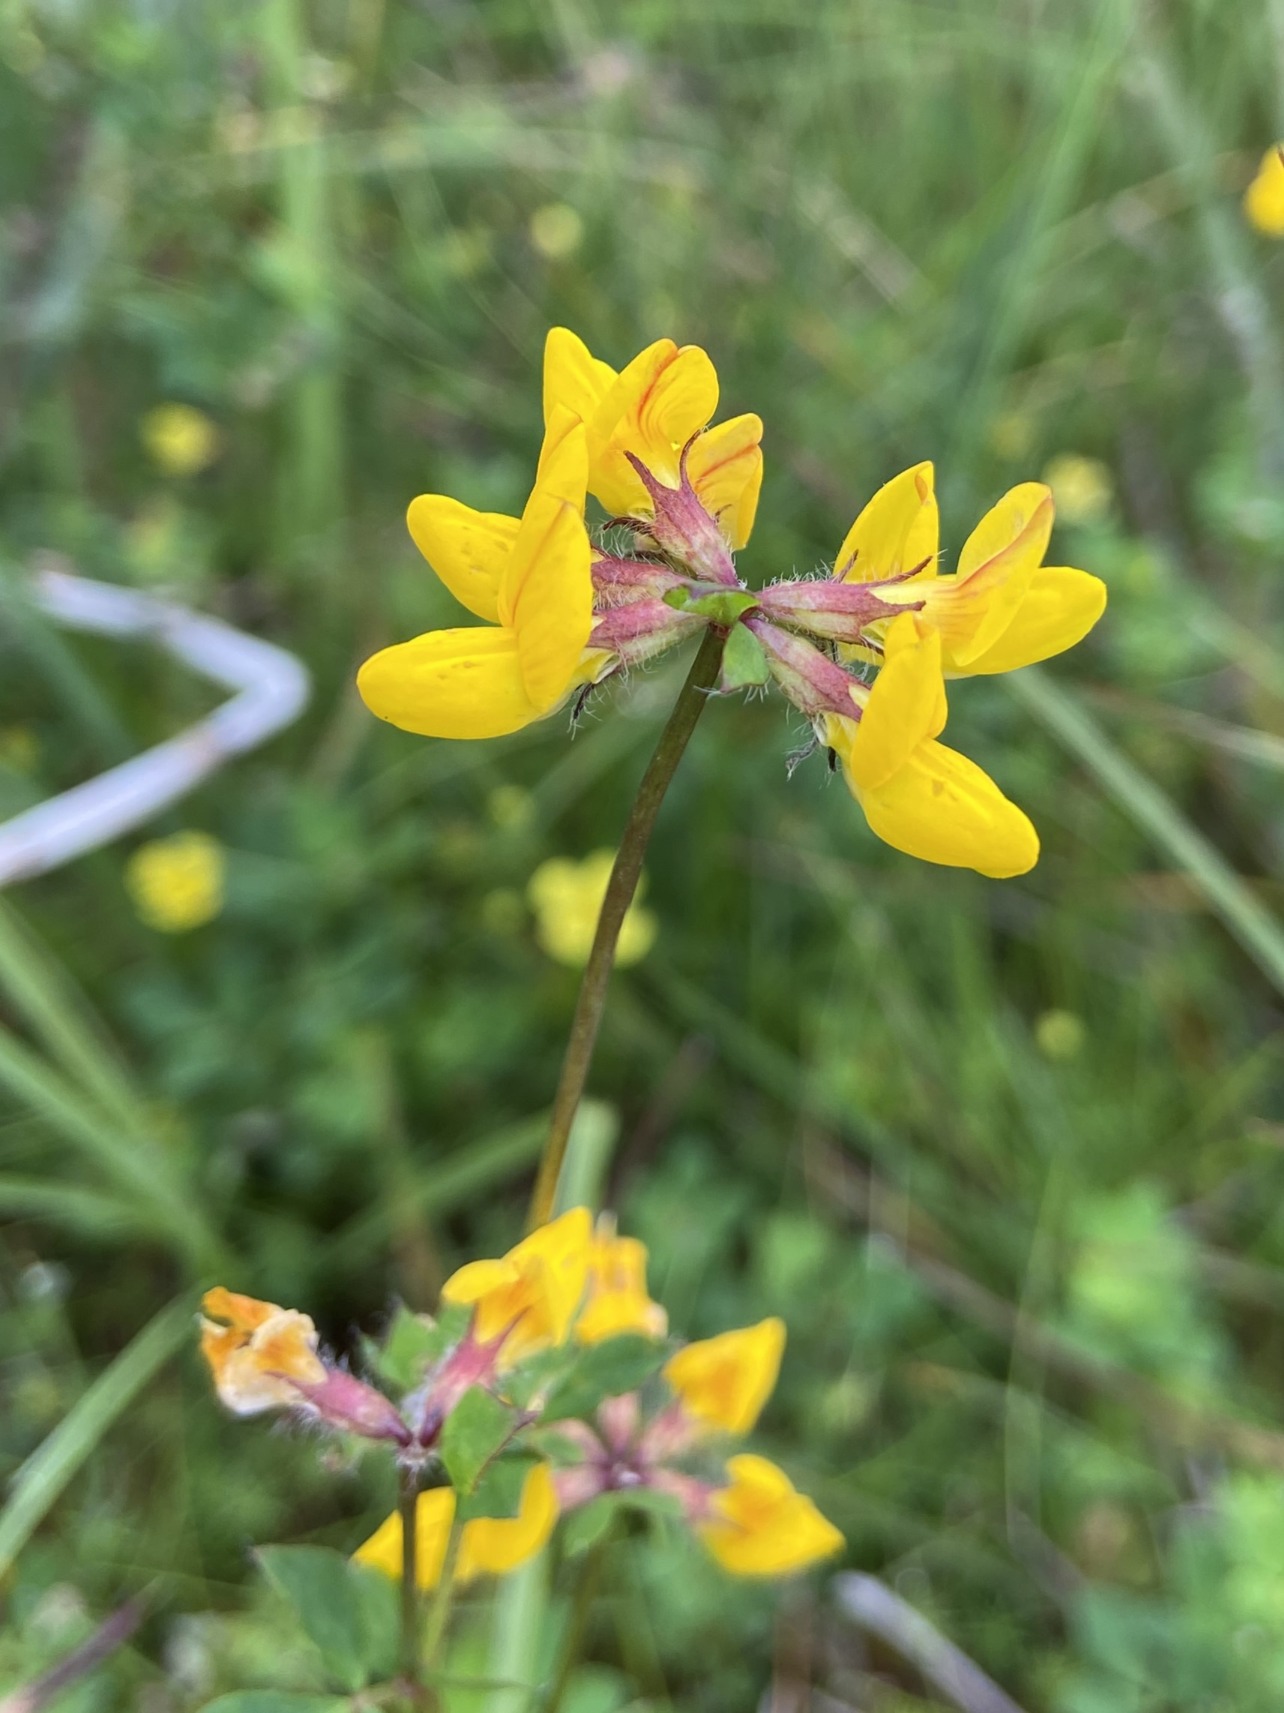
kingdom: Plantae
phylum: Tracheophyta
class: Magnoliopsida
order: Fabales
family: Fabaceae
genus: Lotus
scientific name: Lotus
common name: Kællingetandslægten
